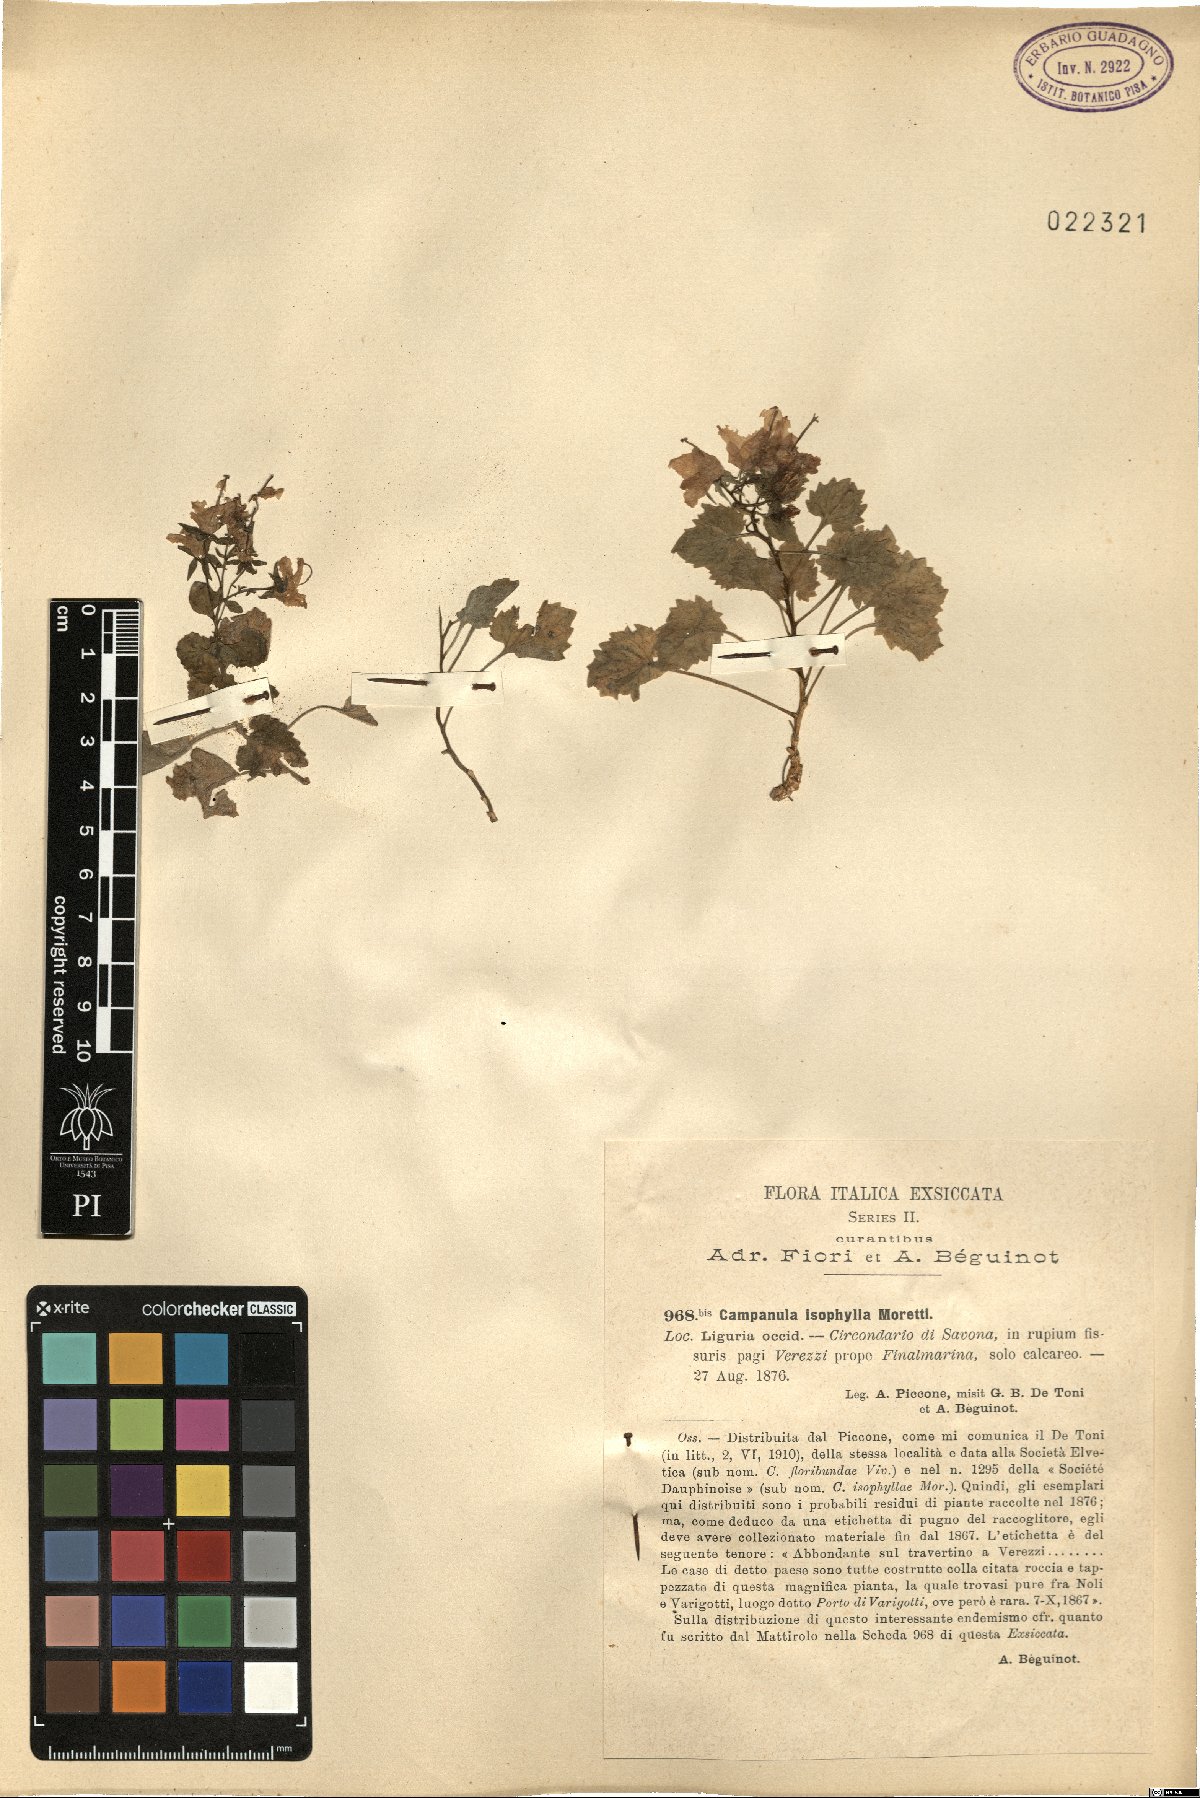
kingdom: Plantae
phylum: Tracheophyta
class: Magnoliopsida
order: Asterales
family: Campanulaceae
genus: Campanula
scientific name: Campanula isophylla
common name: Falling-stars
